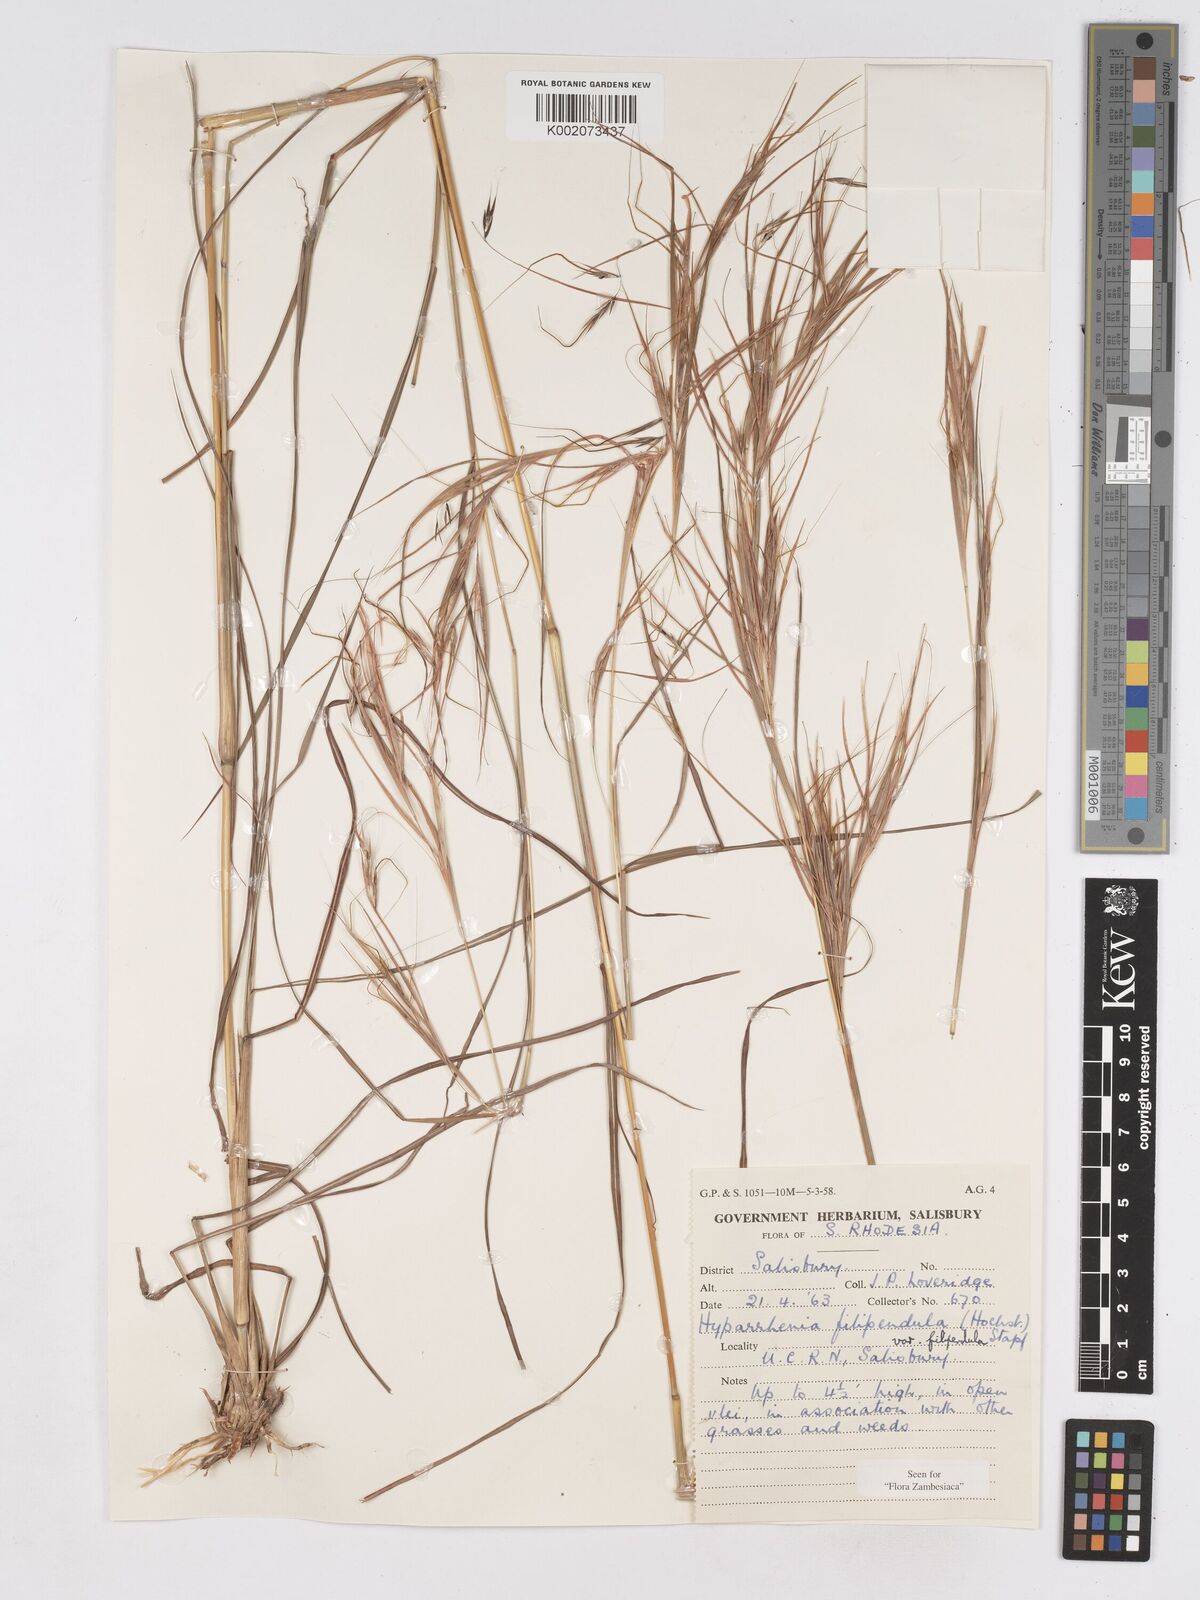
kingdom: Plantae
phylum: Tracheophyta
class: Liliopsida
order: Poales
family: Poaceae
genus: Hyparrhenia
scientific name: Hyparrhenia filipendula
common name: Tambookie grass
